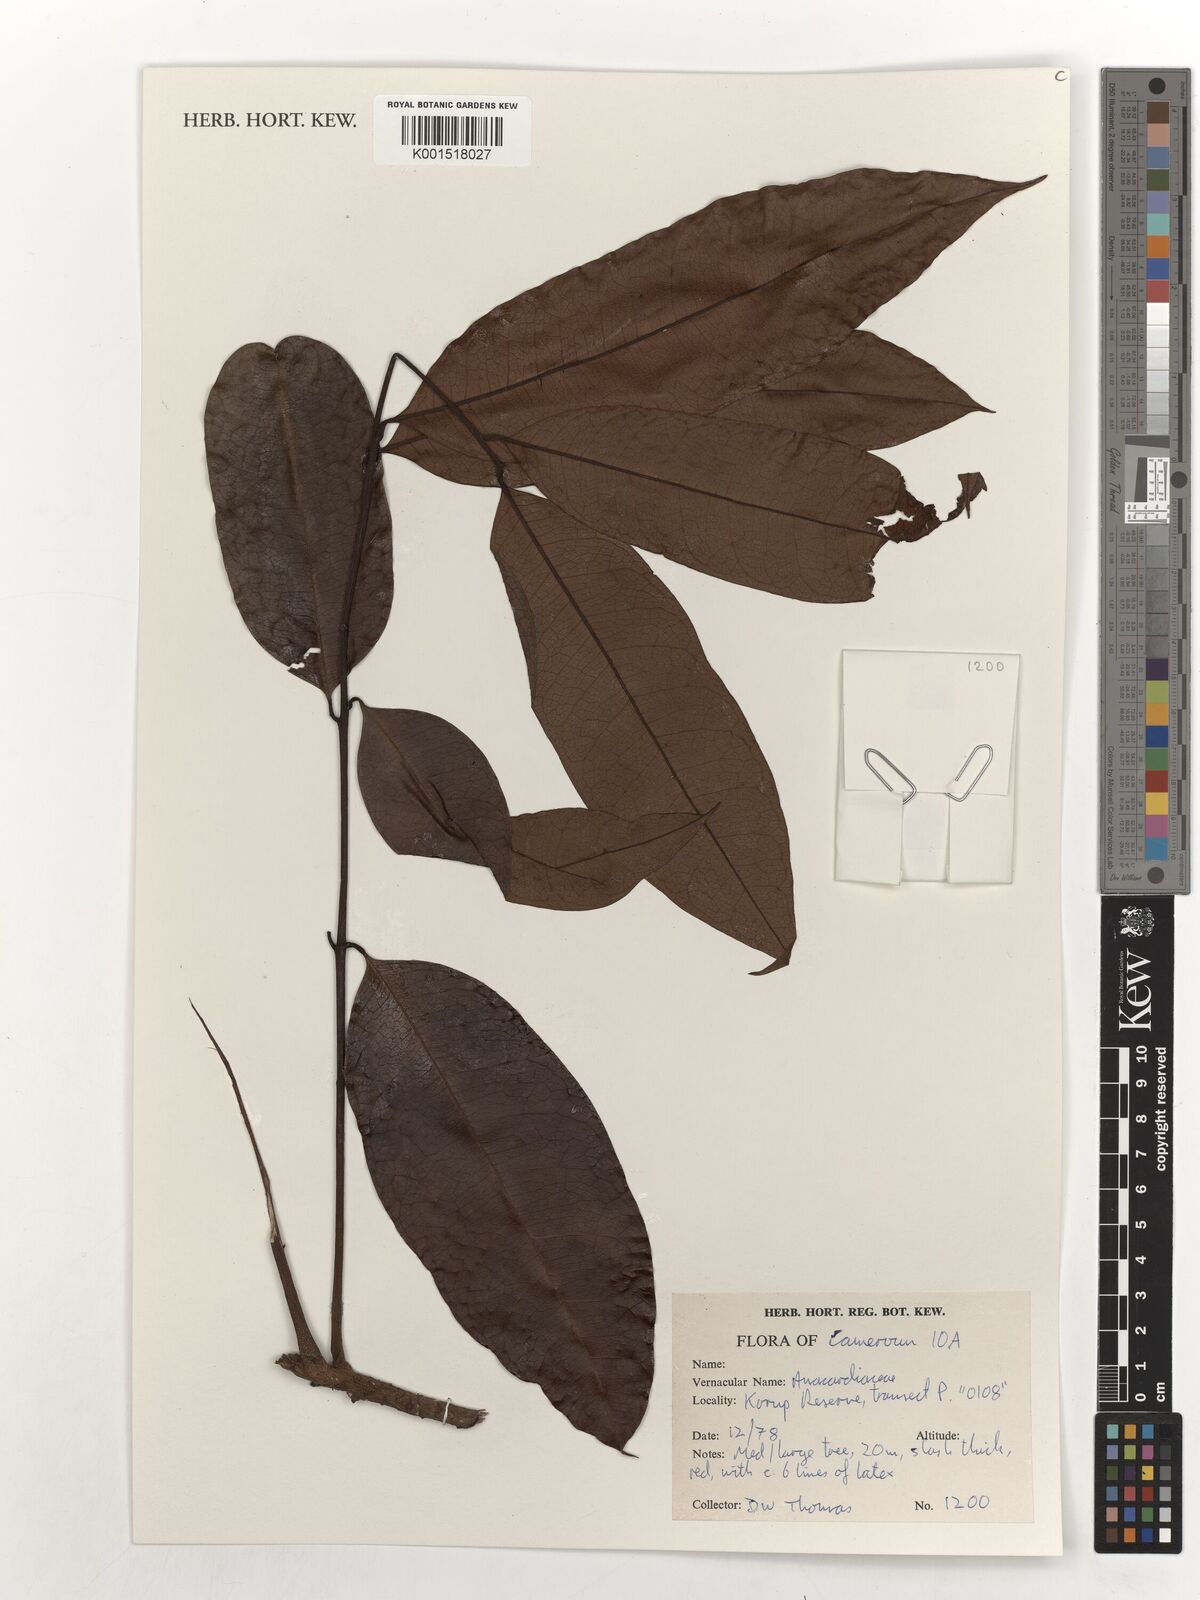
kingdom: Plantae
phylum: Tracheophyta
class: Magnoliopsida
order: Sapindales
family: Anacardiaceae
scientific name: Anacardiaceae
